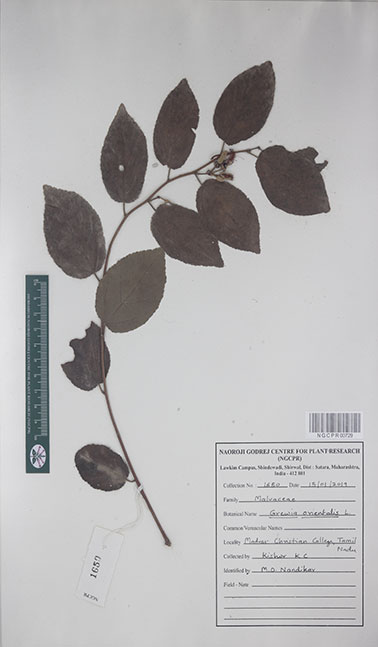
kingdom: Plantae
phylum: Tracheophyta
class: Magnoliopsida
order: Malvales
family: Malvaceae
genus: Grewia
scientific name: Grewia orientalis
